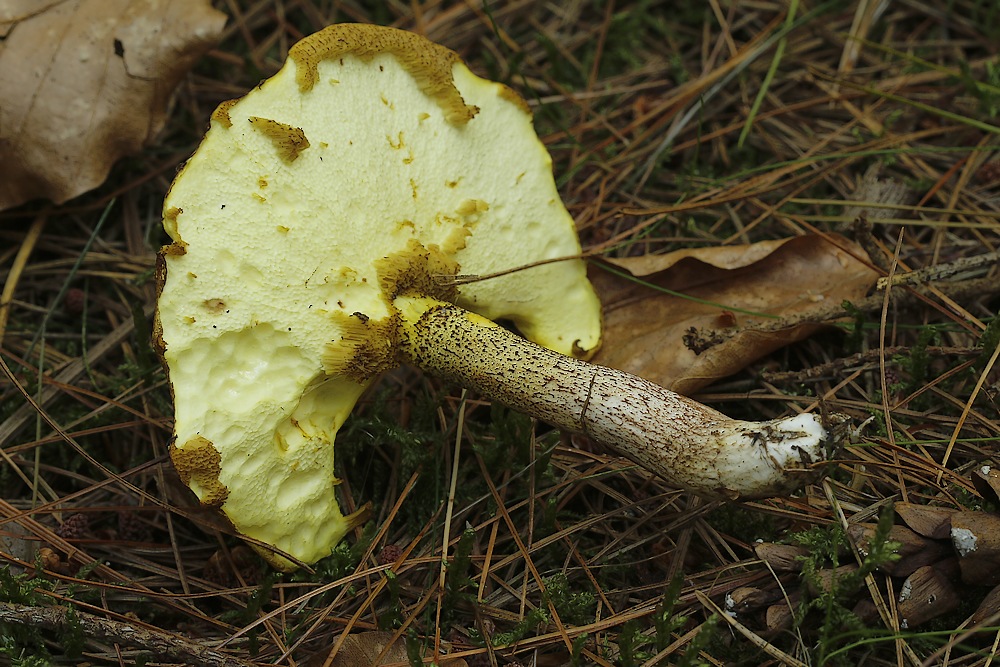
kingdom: Fungi
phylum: Basidiomycota
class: Agaricomycetes
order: Boletales
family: Suillaceae
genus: Suillus
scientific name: Suillus placidus
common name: elfenbens-slimrørhat
